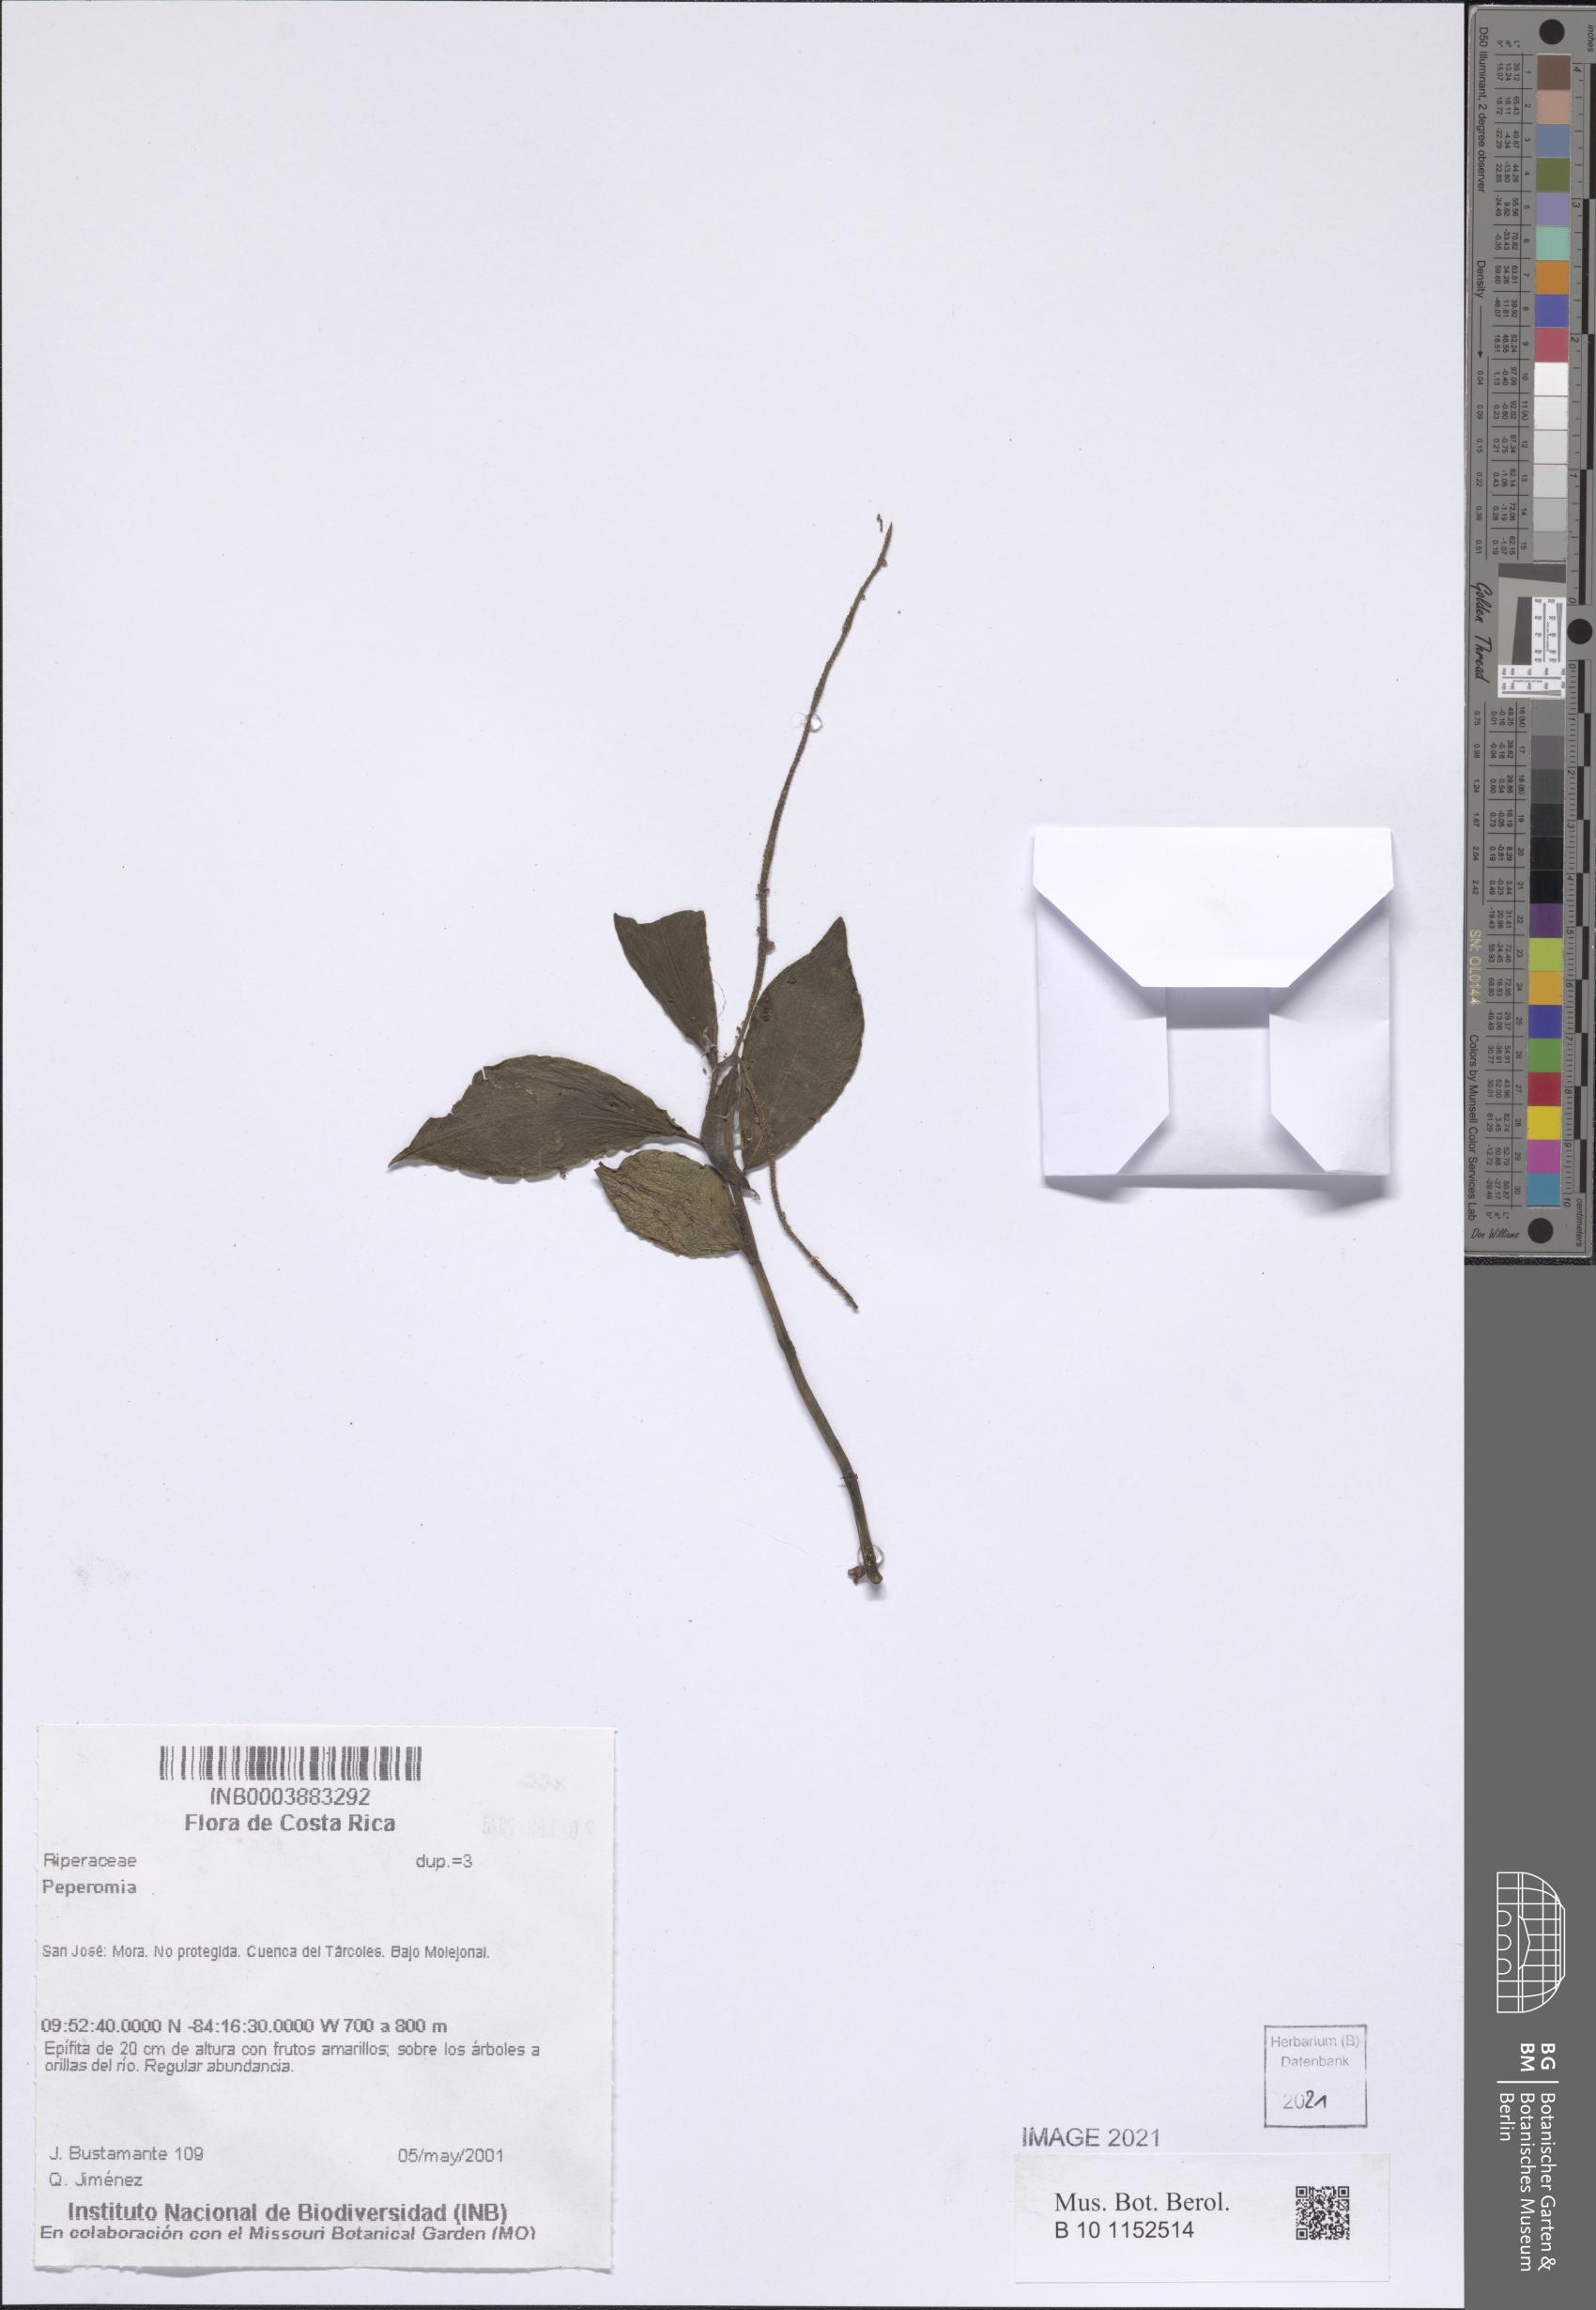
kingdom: Plantae
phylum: Tracheophyta
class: Magnoliopsida
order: Piperales
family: Piperaceae
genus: Peperomia
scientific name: Peperomia
